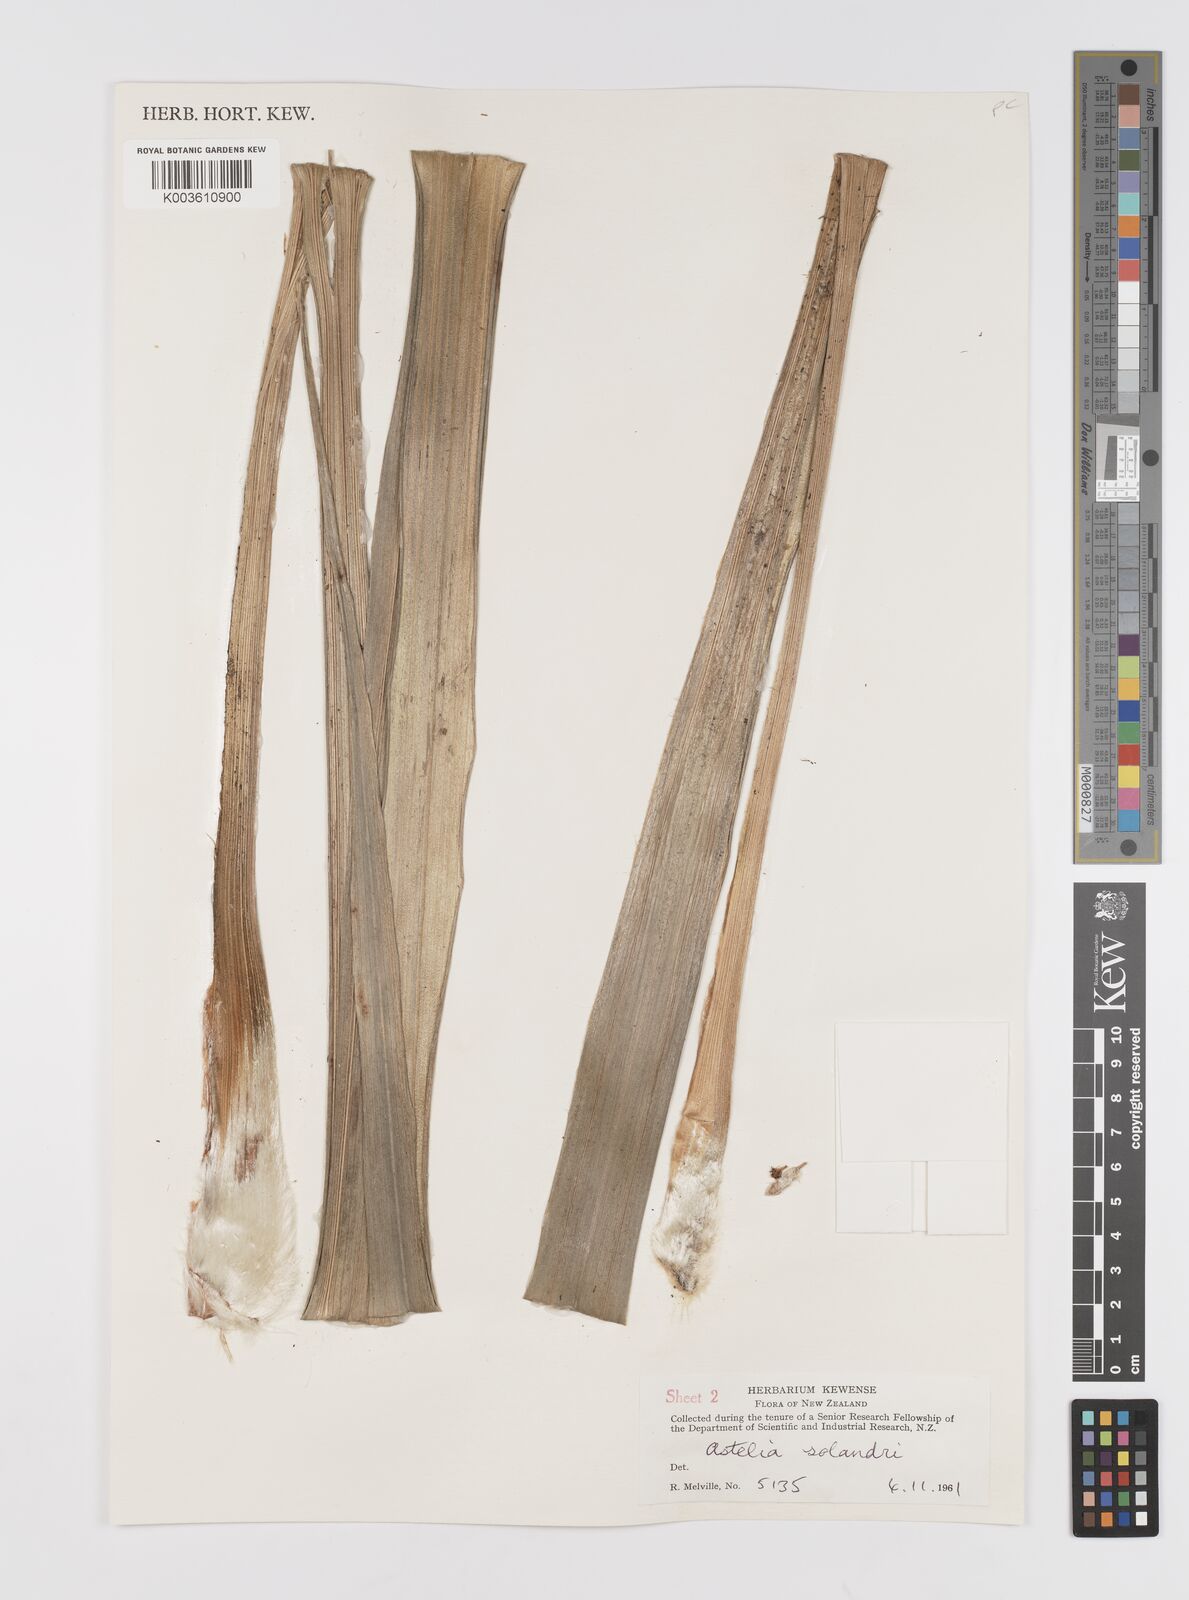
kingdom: Plantae
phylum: Tracheophyta
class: Liliopsida
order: Asparagales
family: Asteliaceae
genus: Astelia
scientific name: Astelia solandri
